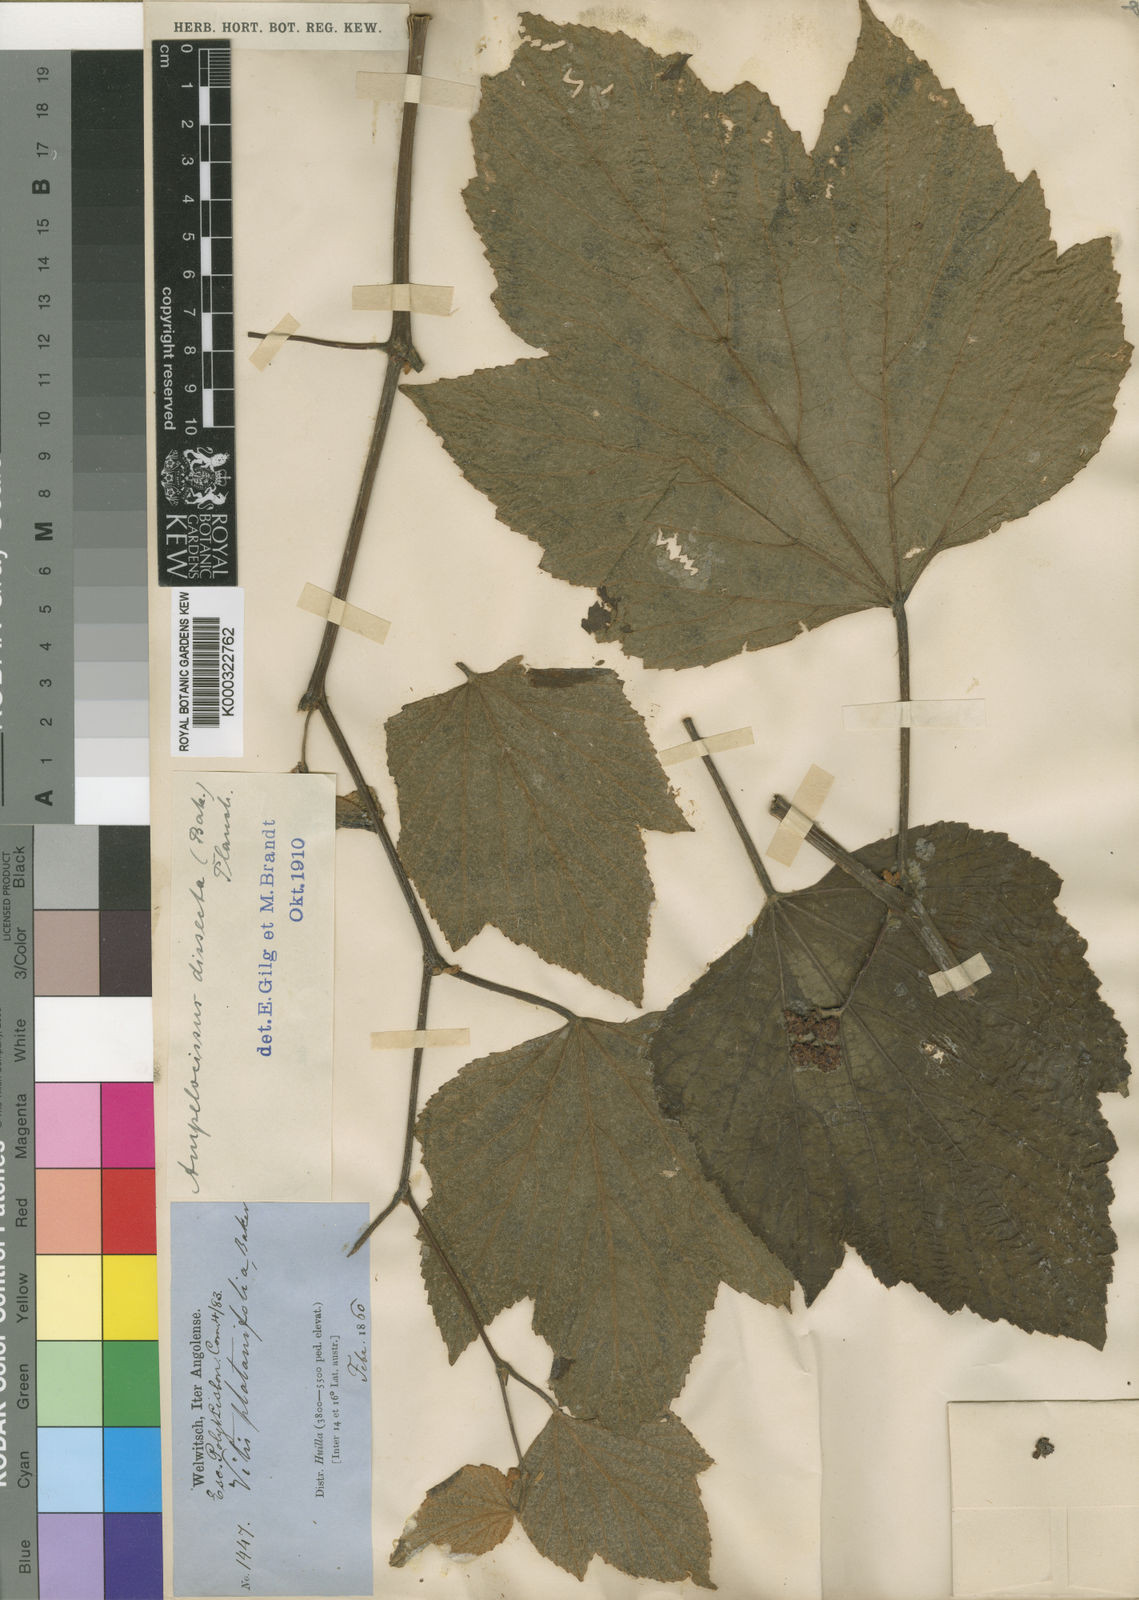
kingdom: Plantae
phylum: Tracheophyta
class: Magnoliopsida
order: Vitales
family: Vitaceae
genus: Ampelocissus
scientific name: Ampelocissus dissecta
